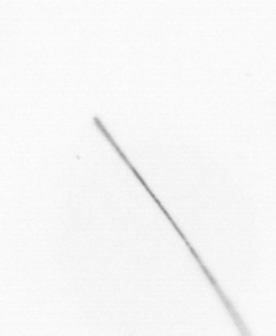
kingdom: Chromista
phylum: Ochrophyta
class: Bacillariophyceae
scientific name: Bacillariophyceae
